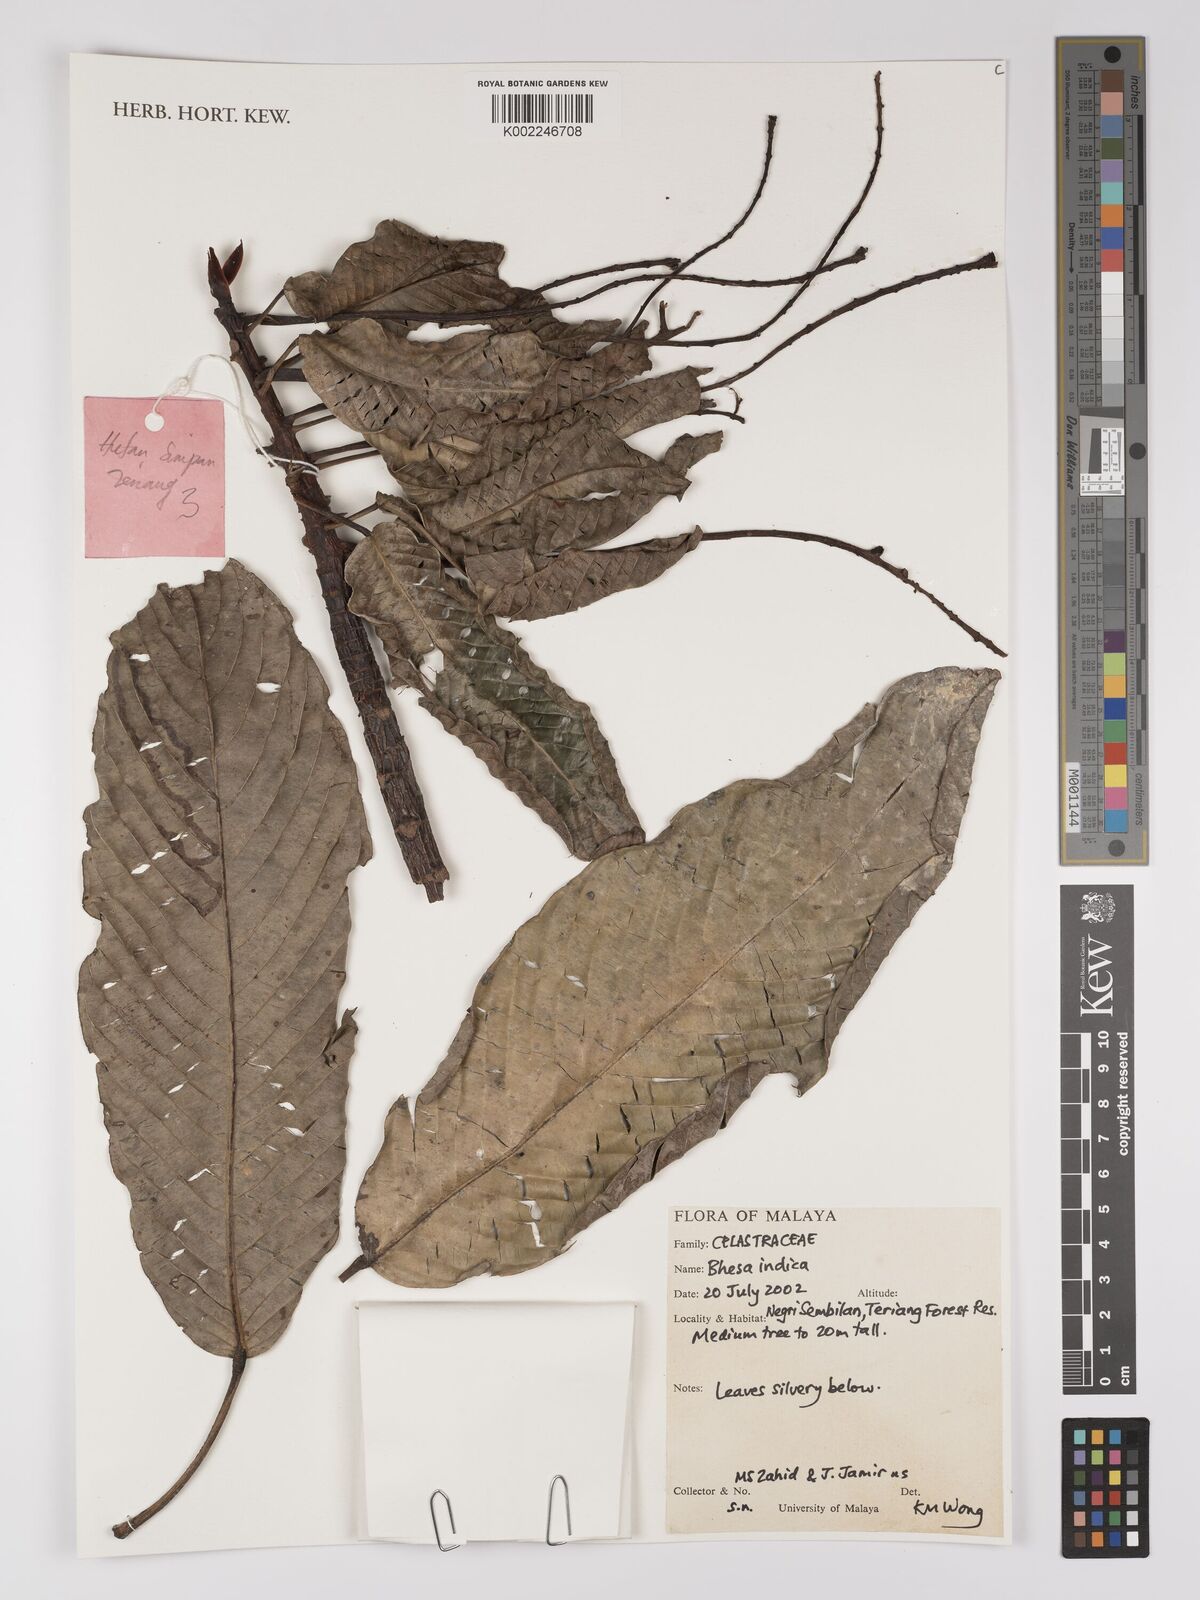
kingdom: Plantae
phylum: Tracheophyta
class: Magnoliopsida
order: Malpighiales
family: Centroplacaceae
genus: Bhesa
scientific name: Bhesa indica
